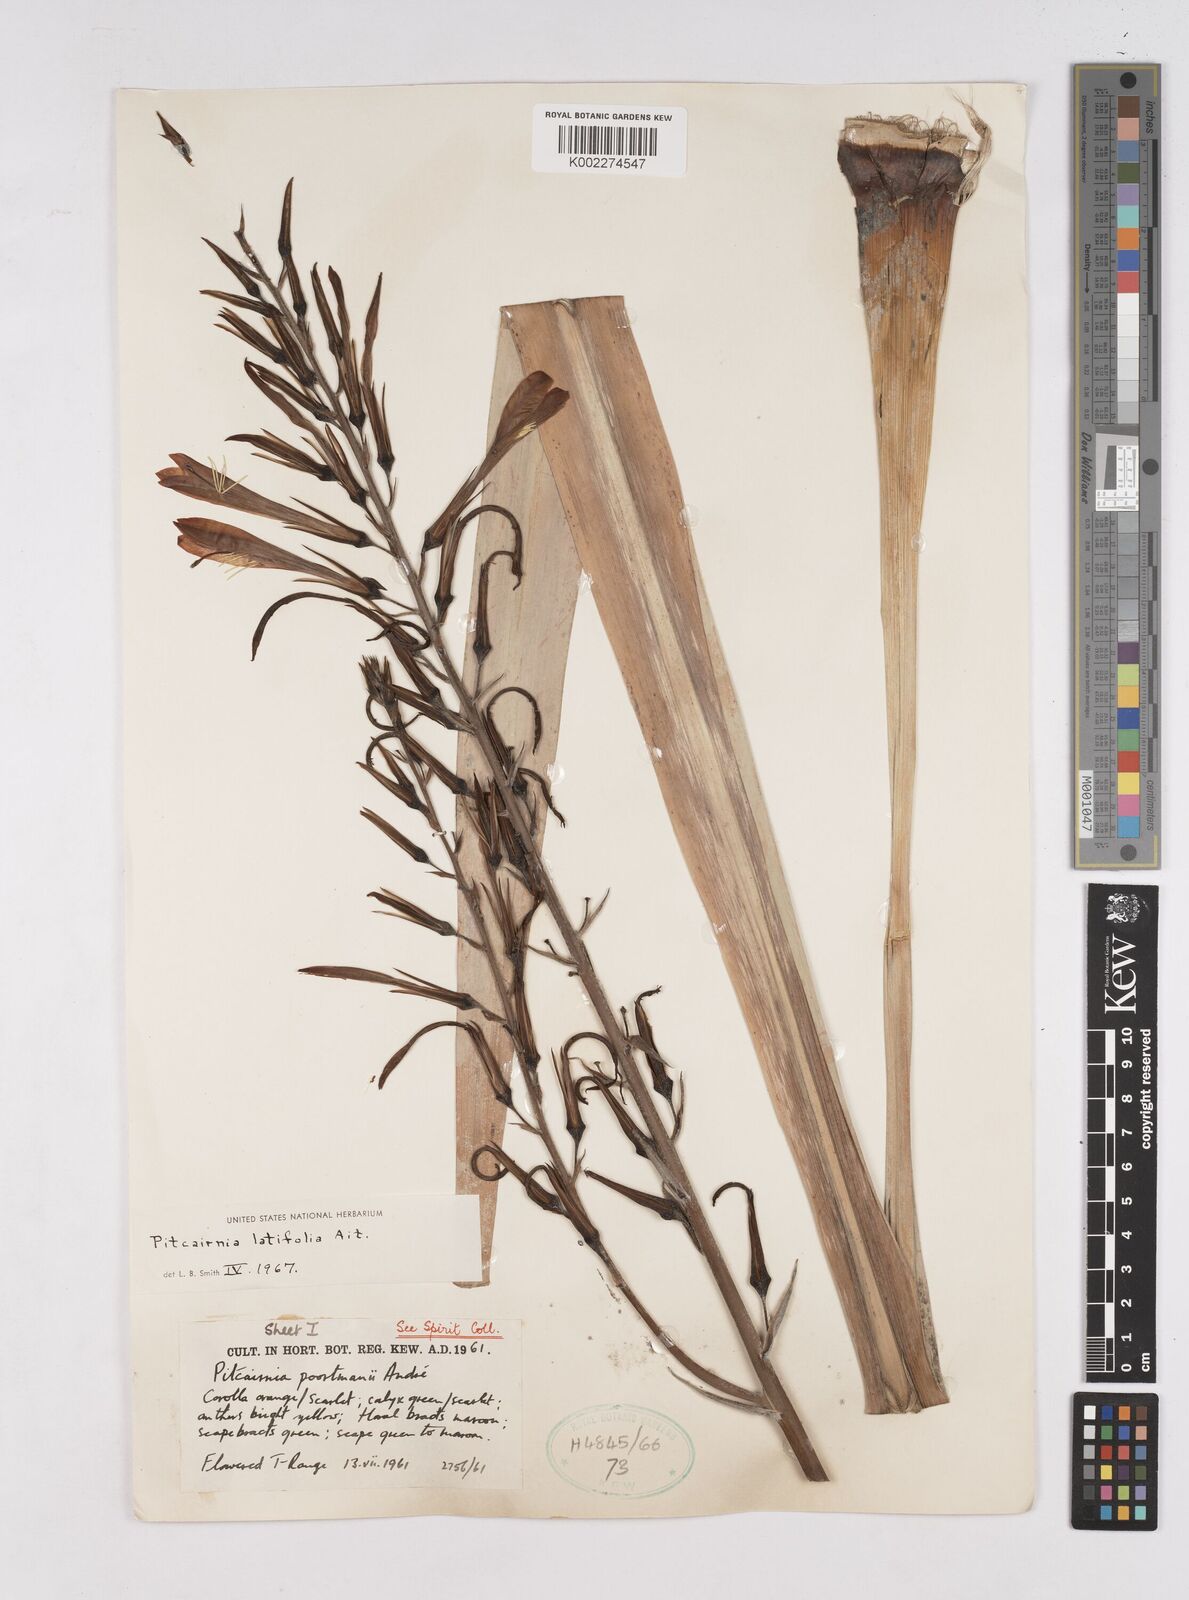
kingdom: Plantae
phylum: Tracheophyta
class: Liliopsida
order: Poales
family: Bromeliaceae
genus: Pitcairnia
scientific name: Pitcairnia angustifolia
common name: Clapper
